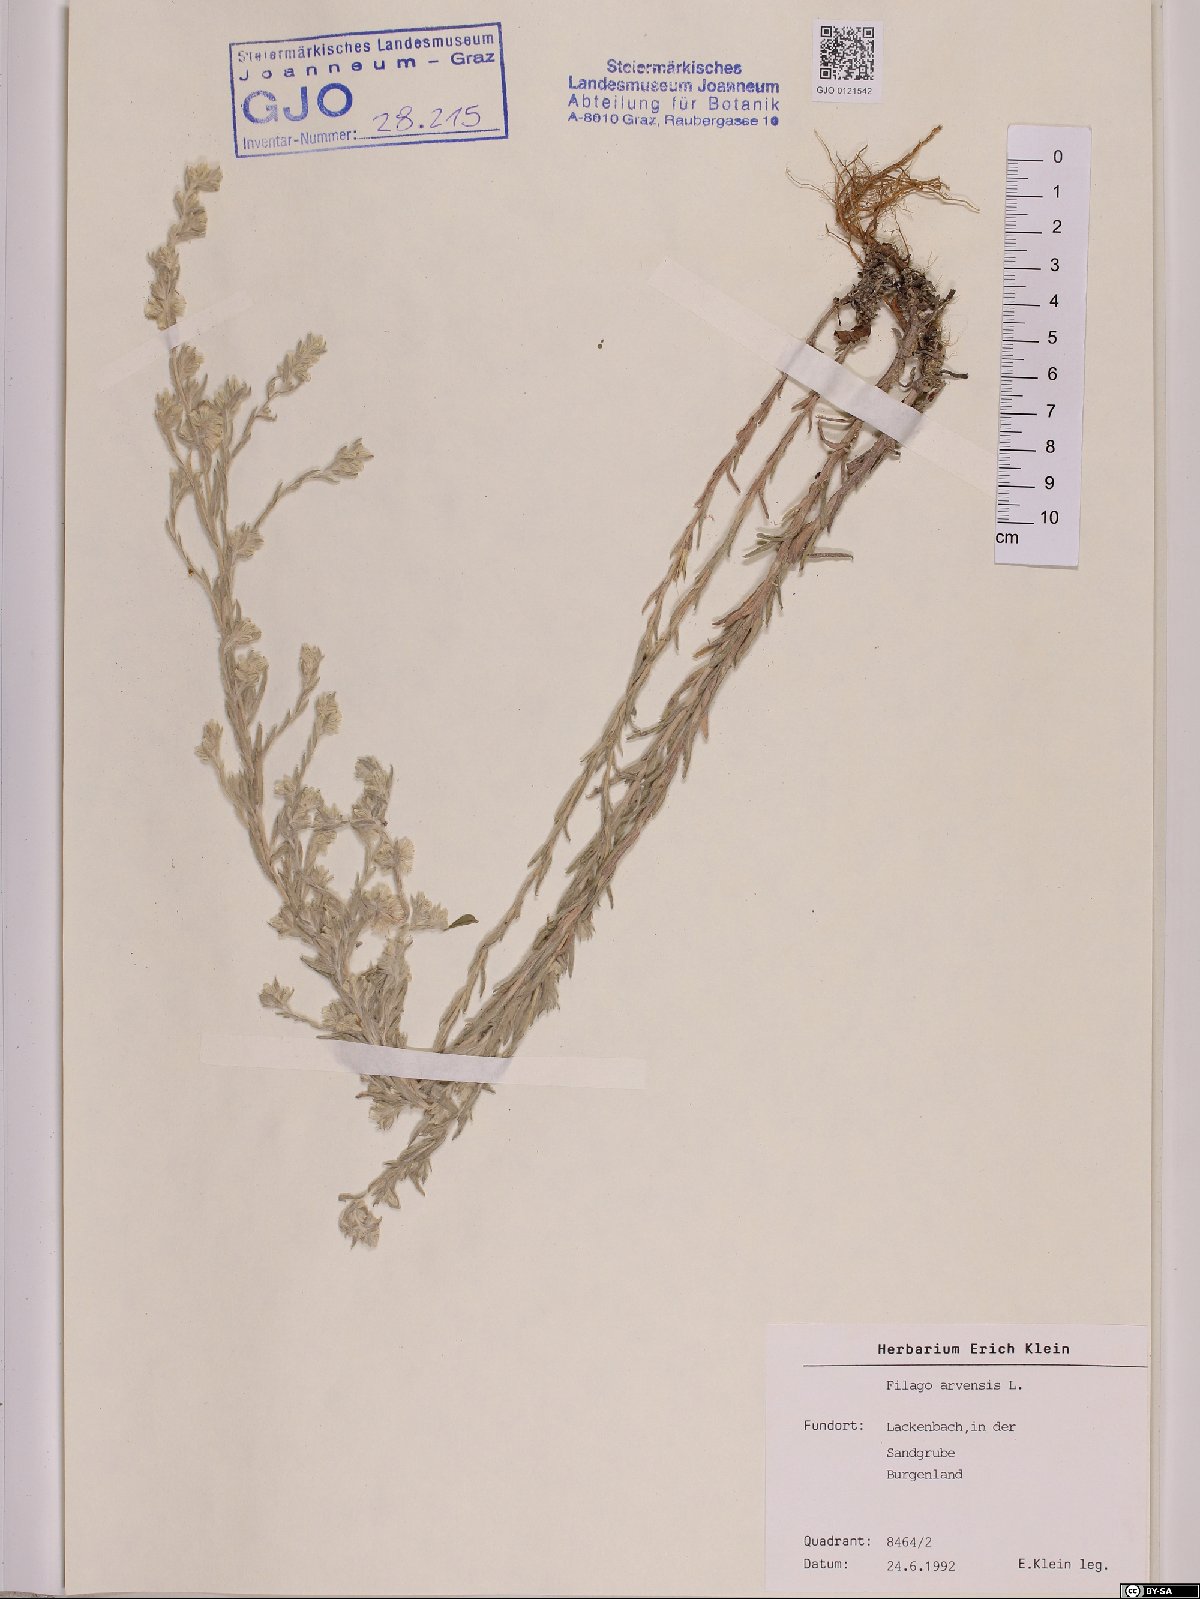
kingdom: Plantae
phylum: Tracheophyta
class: Magnoliopsida
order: Asterales
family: Asteraceae
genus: Filago
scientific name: Filago arvensis
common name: Field cudweed
